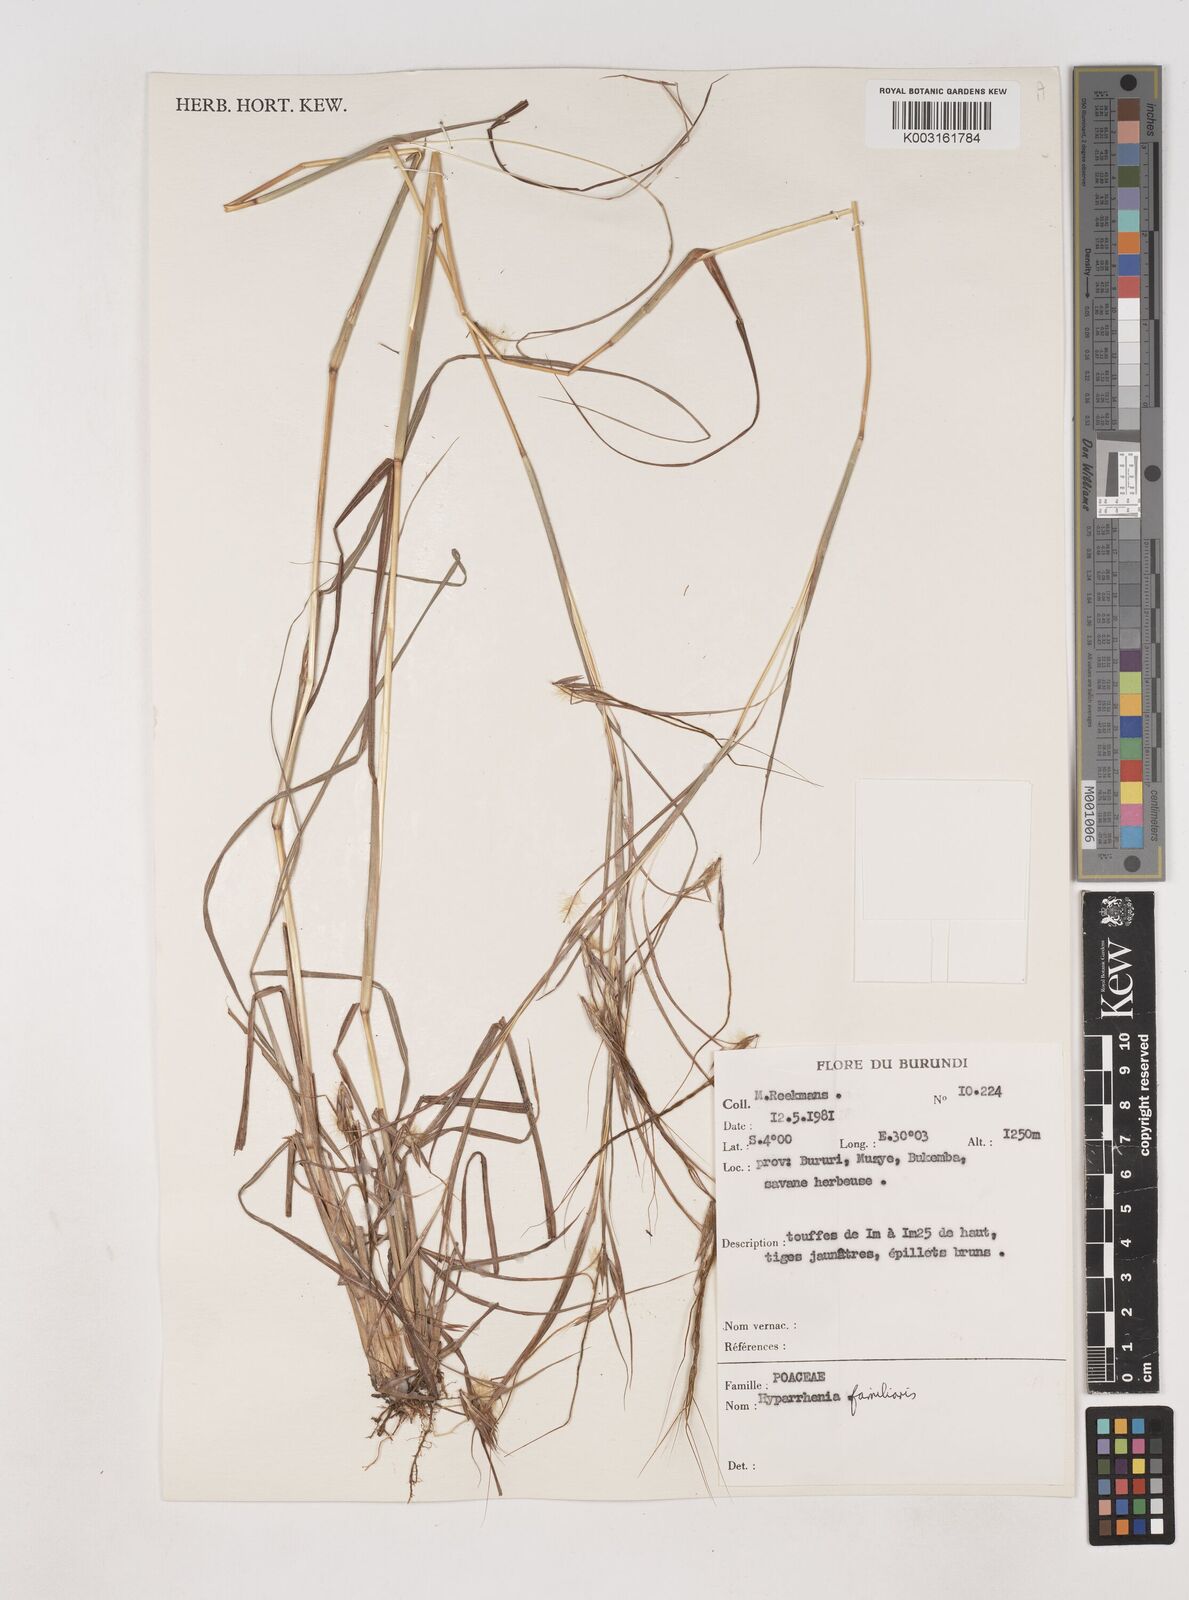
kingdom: Plantae
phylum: Tracheophyta
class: Liliopsida
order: Poales
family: Poaceae
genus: Hyparrhenia
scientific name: Hyparrhenia familiaris
